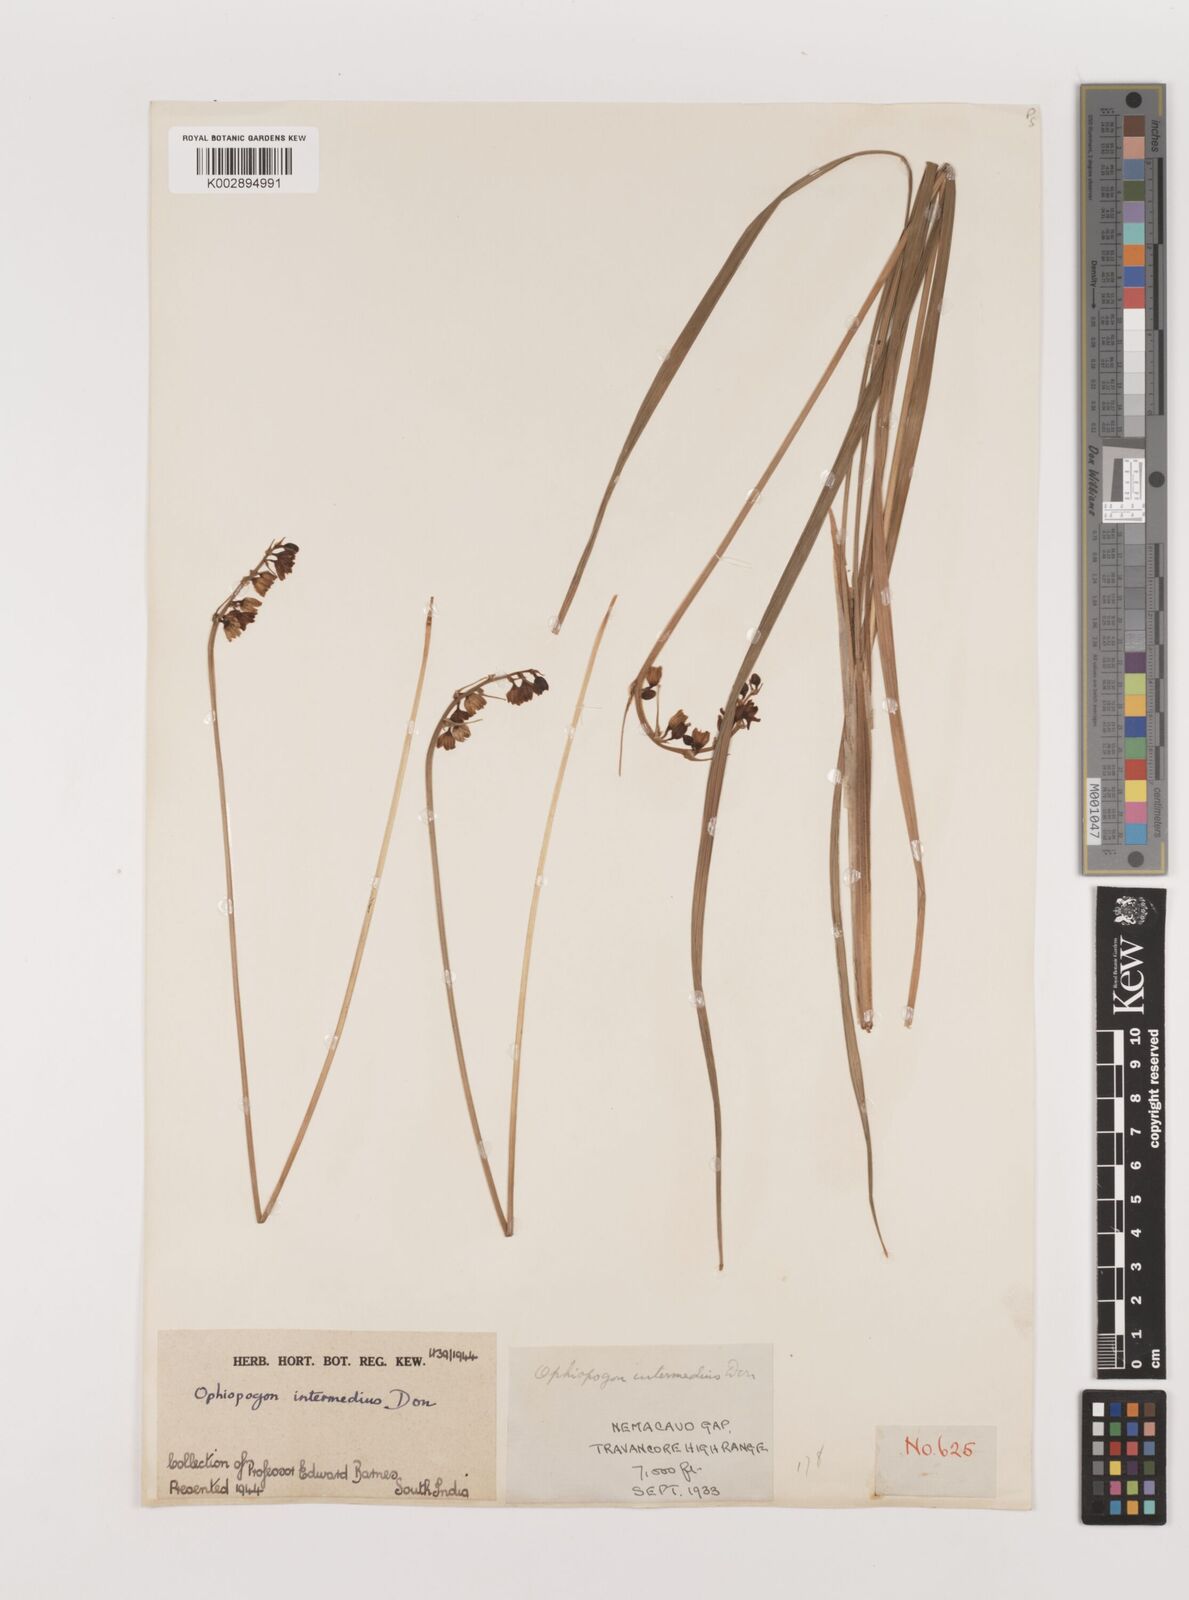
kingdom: Plantae
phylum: Tracheophyta
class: Liliopsida
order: Asparagales
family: Asparagaceae
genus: Ophiopogon
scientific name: Ophiopogon intermedius
